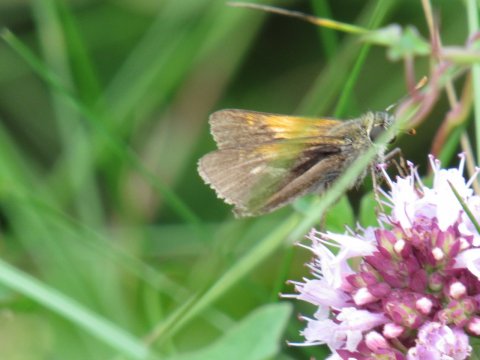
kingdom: Animalia
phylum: Arthropoda
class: Insecta
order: Lepidoptera
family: Hesperiidae
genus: Polites
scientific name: Polites themistocles
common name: Tawny-edged Skipper
